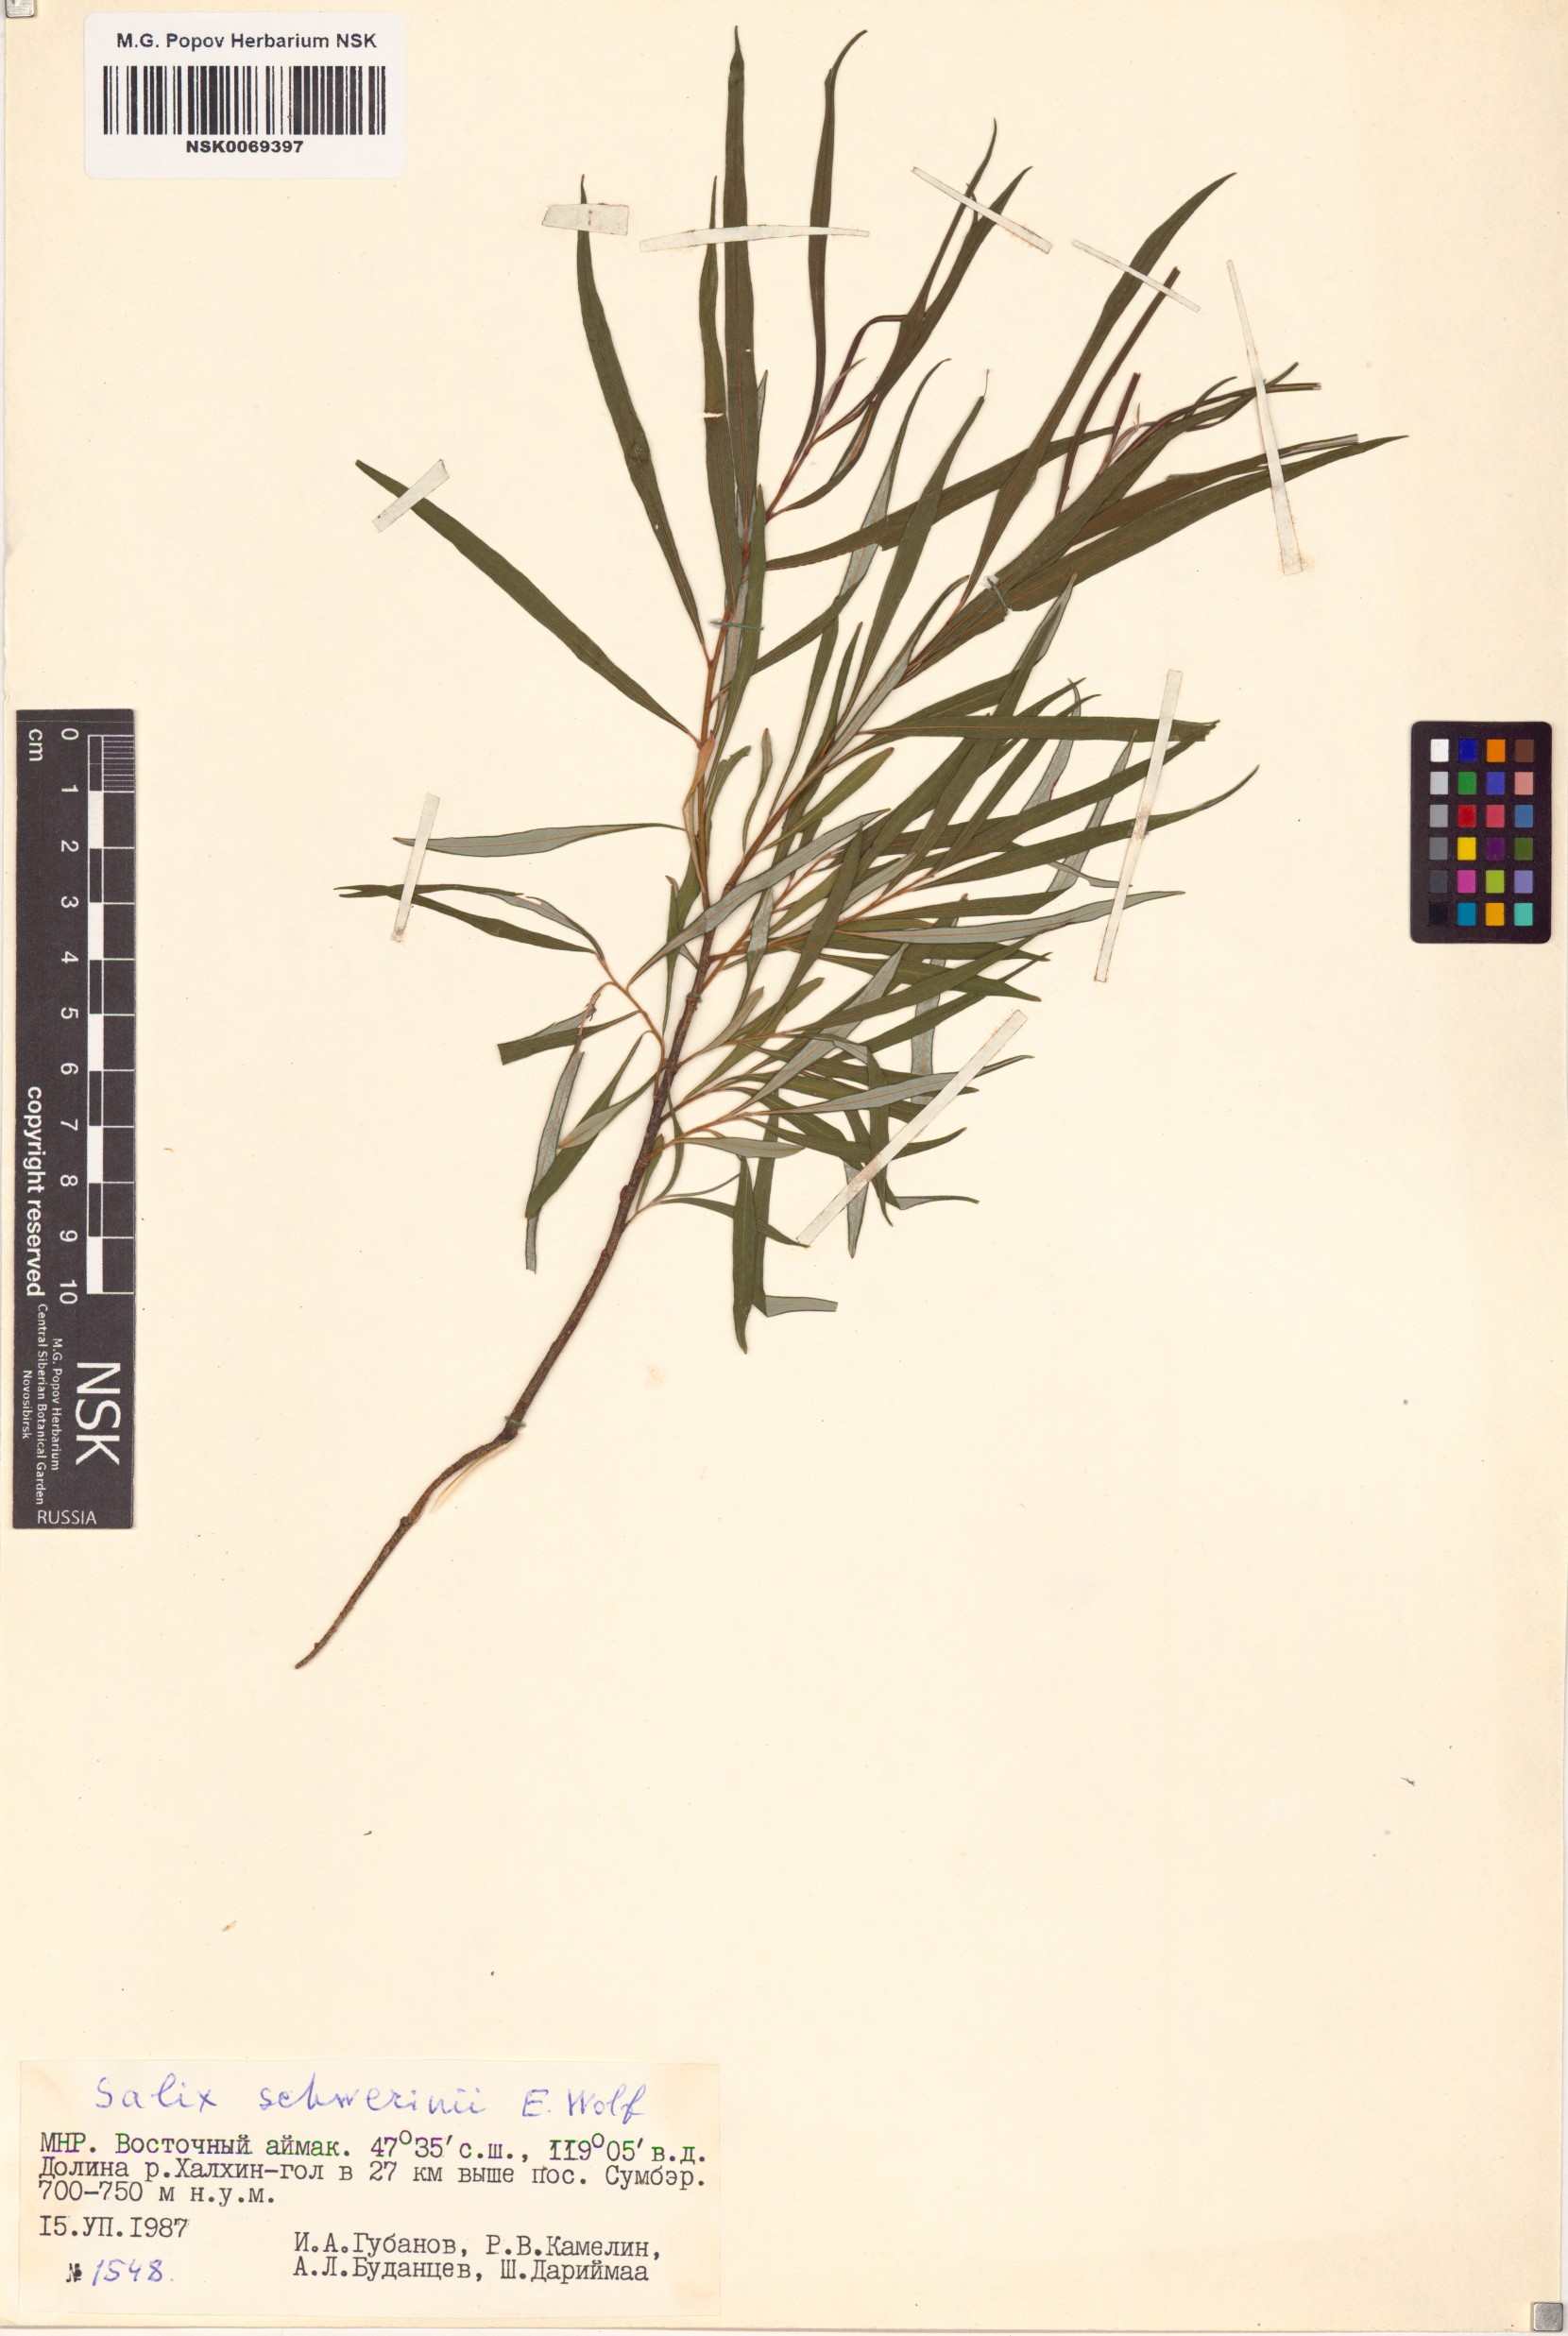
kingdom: Plantae
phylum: Tracheophyta
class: Magnoliopsida
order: Malpighiales
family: Salicaceae
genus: Salix
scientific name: Salix schwerinii
